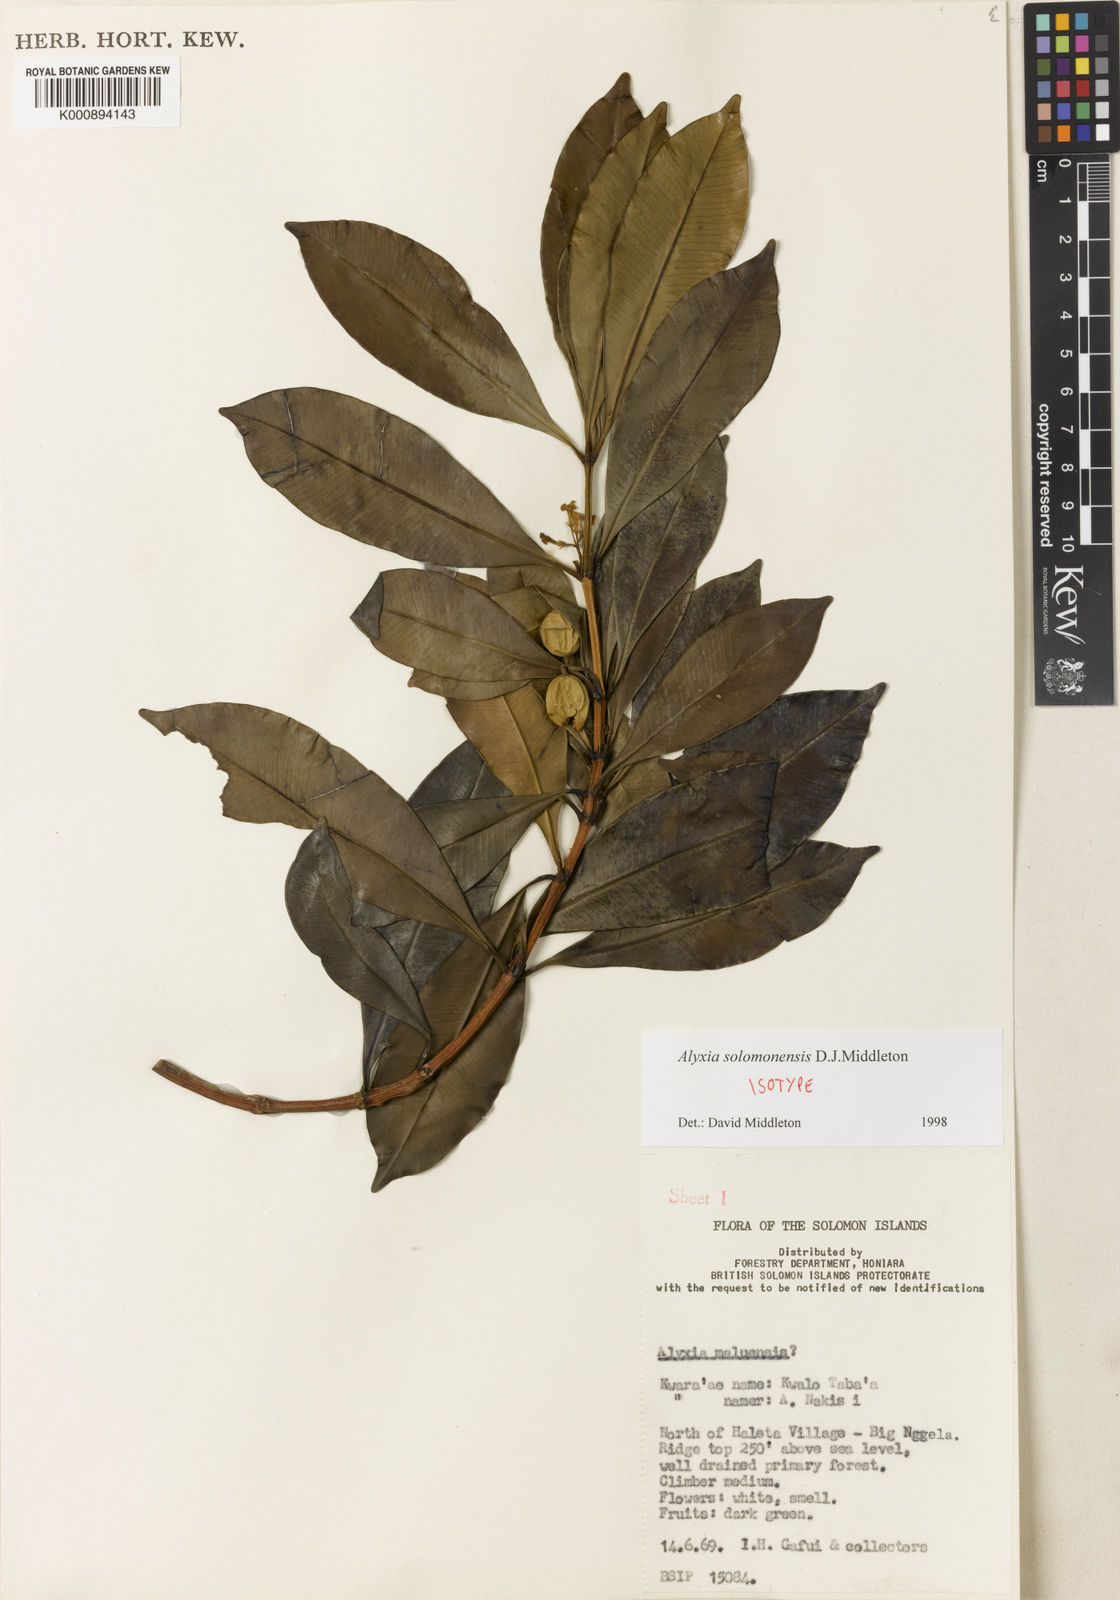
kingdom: Plantae
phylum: Tracheophyta
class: Magnoliopsida
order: Gentianales
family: Apocynaceae
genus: Alyxia
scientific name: Alyxia solomonensis
